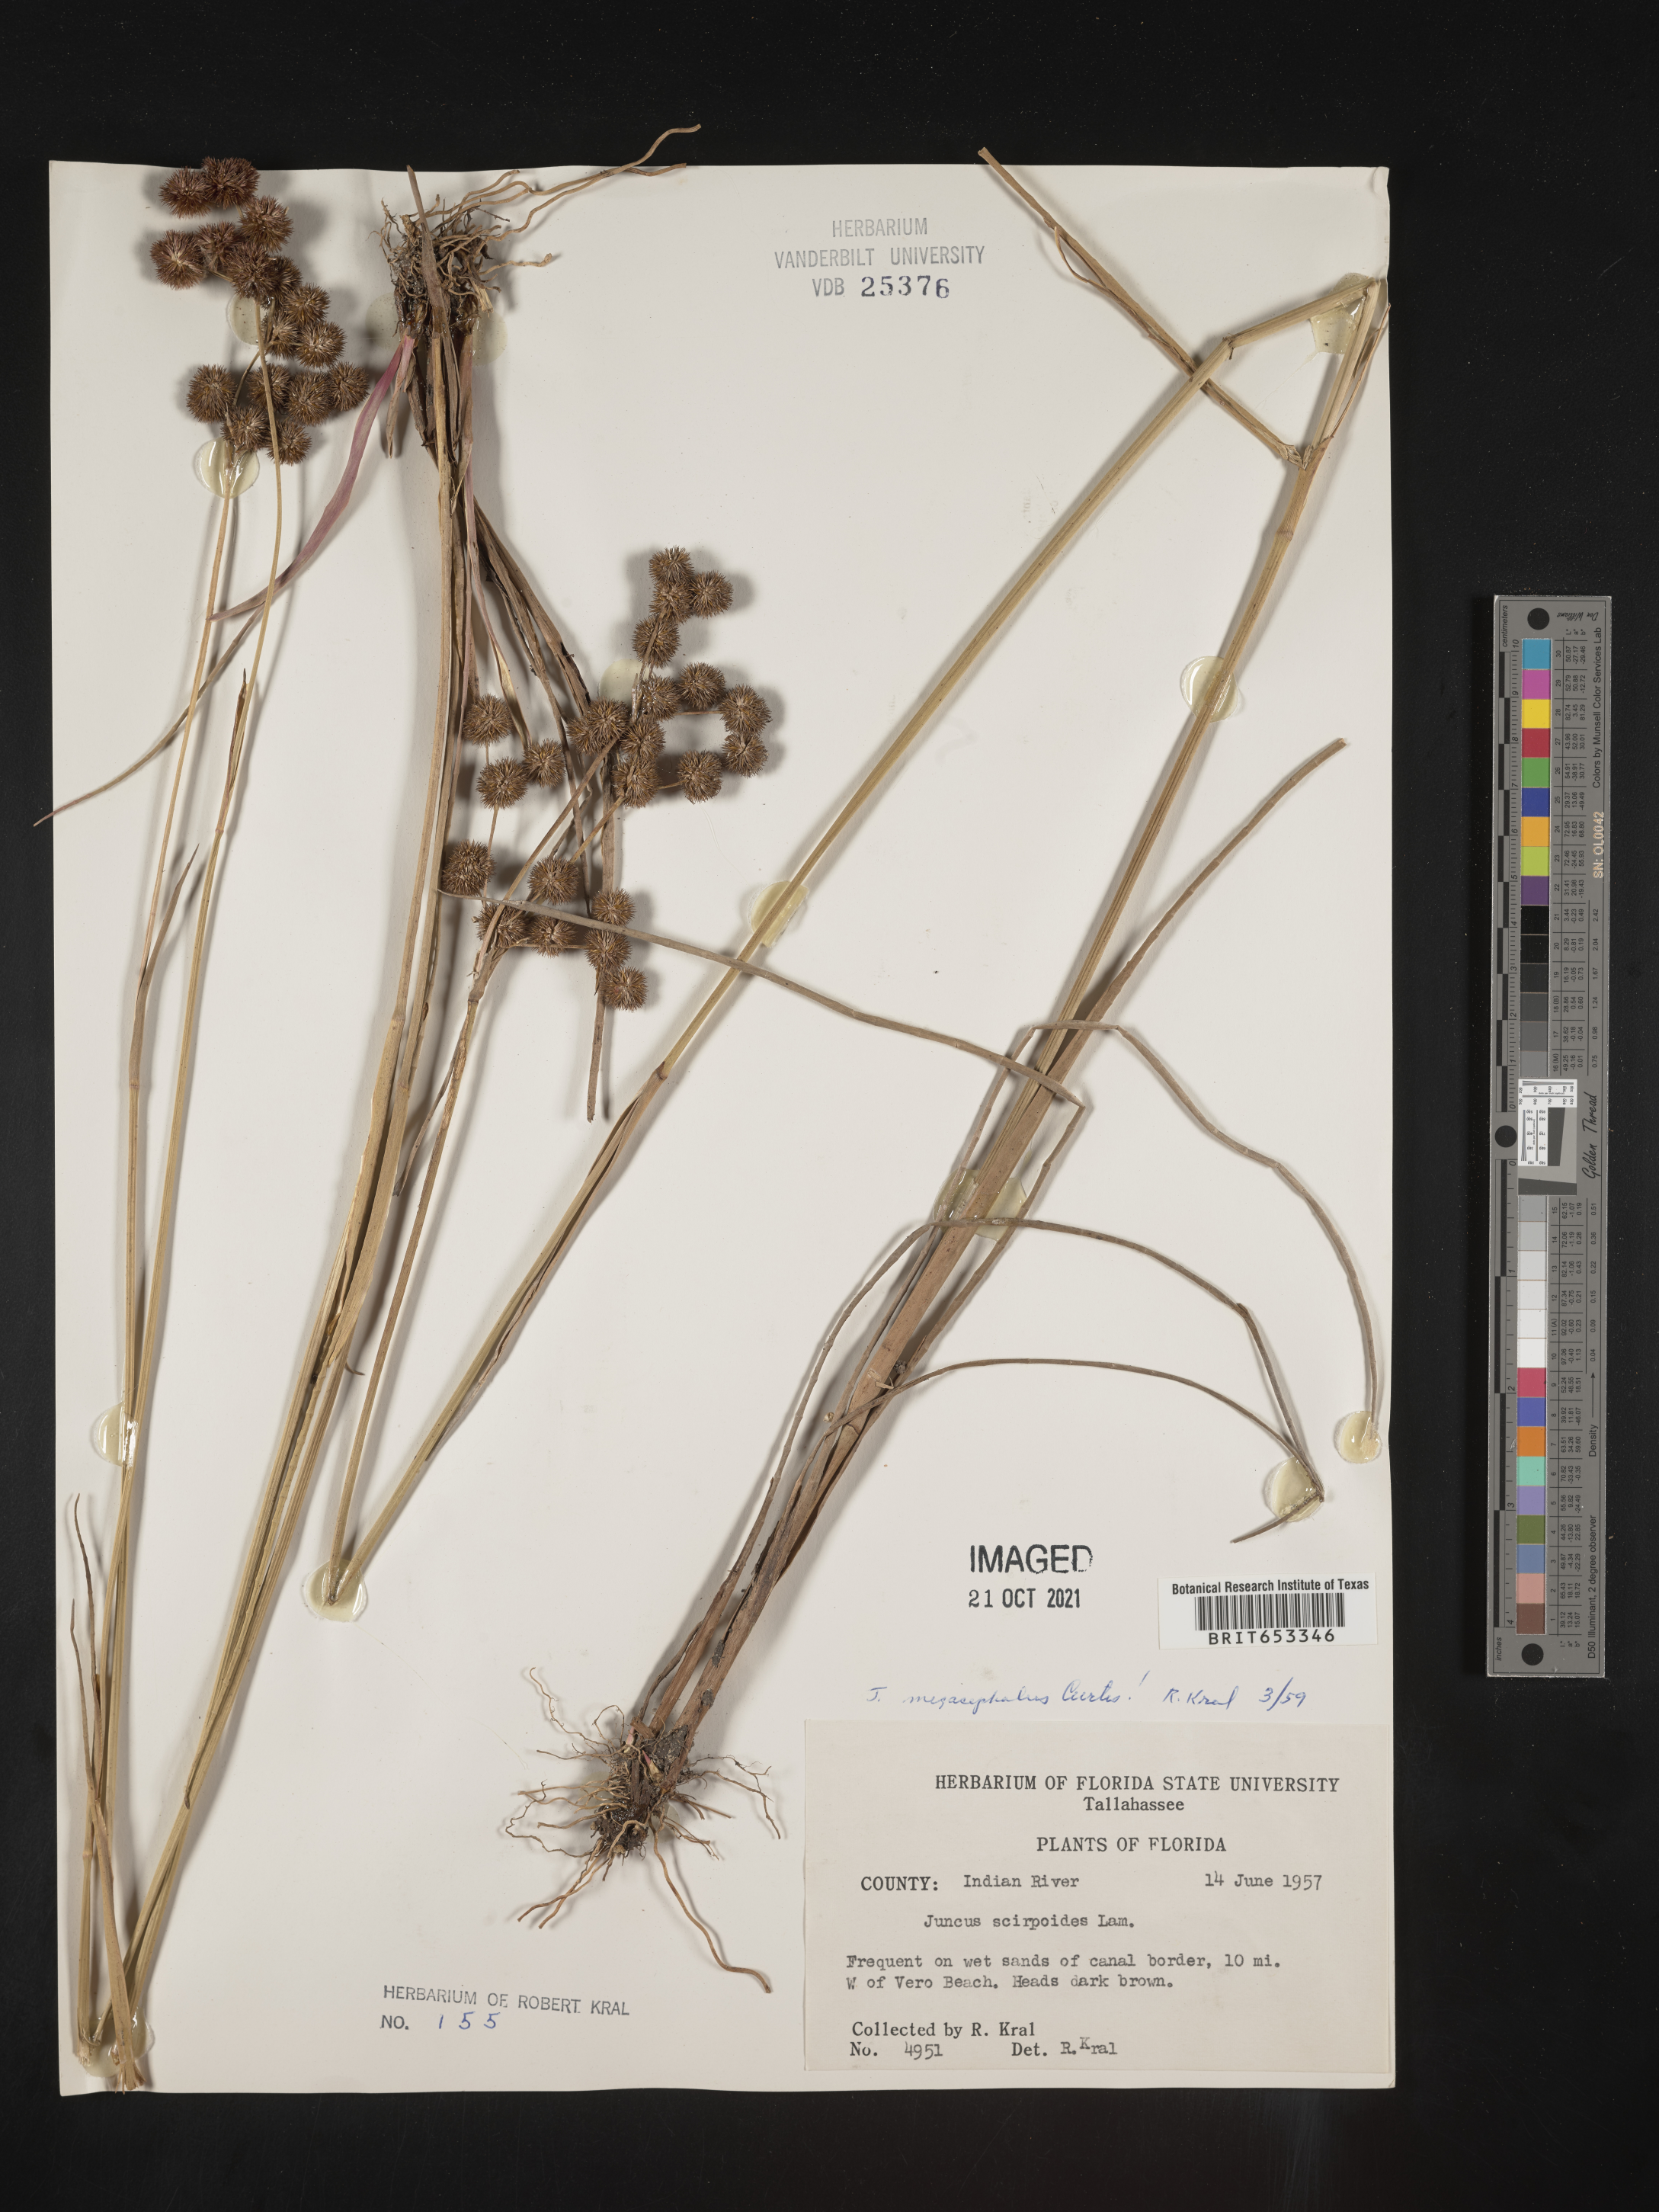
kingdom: Plantae
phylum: Tracheophyta
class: Liliopsida
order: Poales
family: Juncaceae
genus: Juncus
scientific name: Juncus megacephalus
